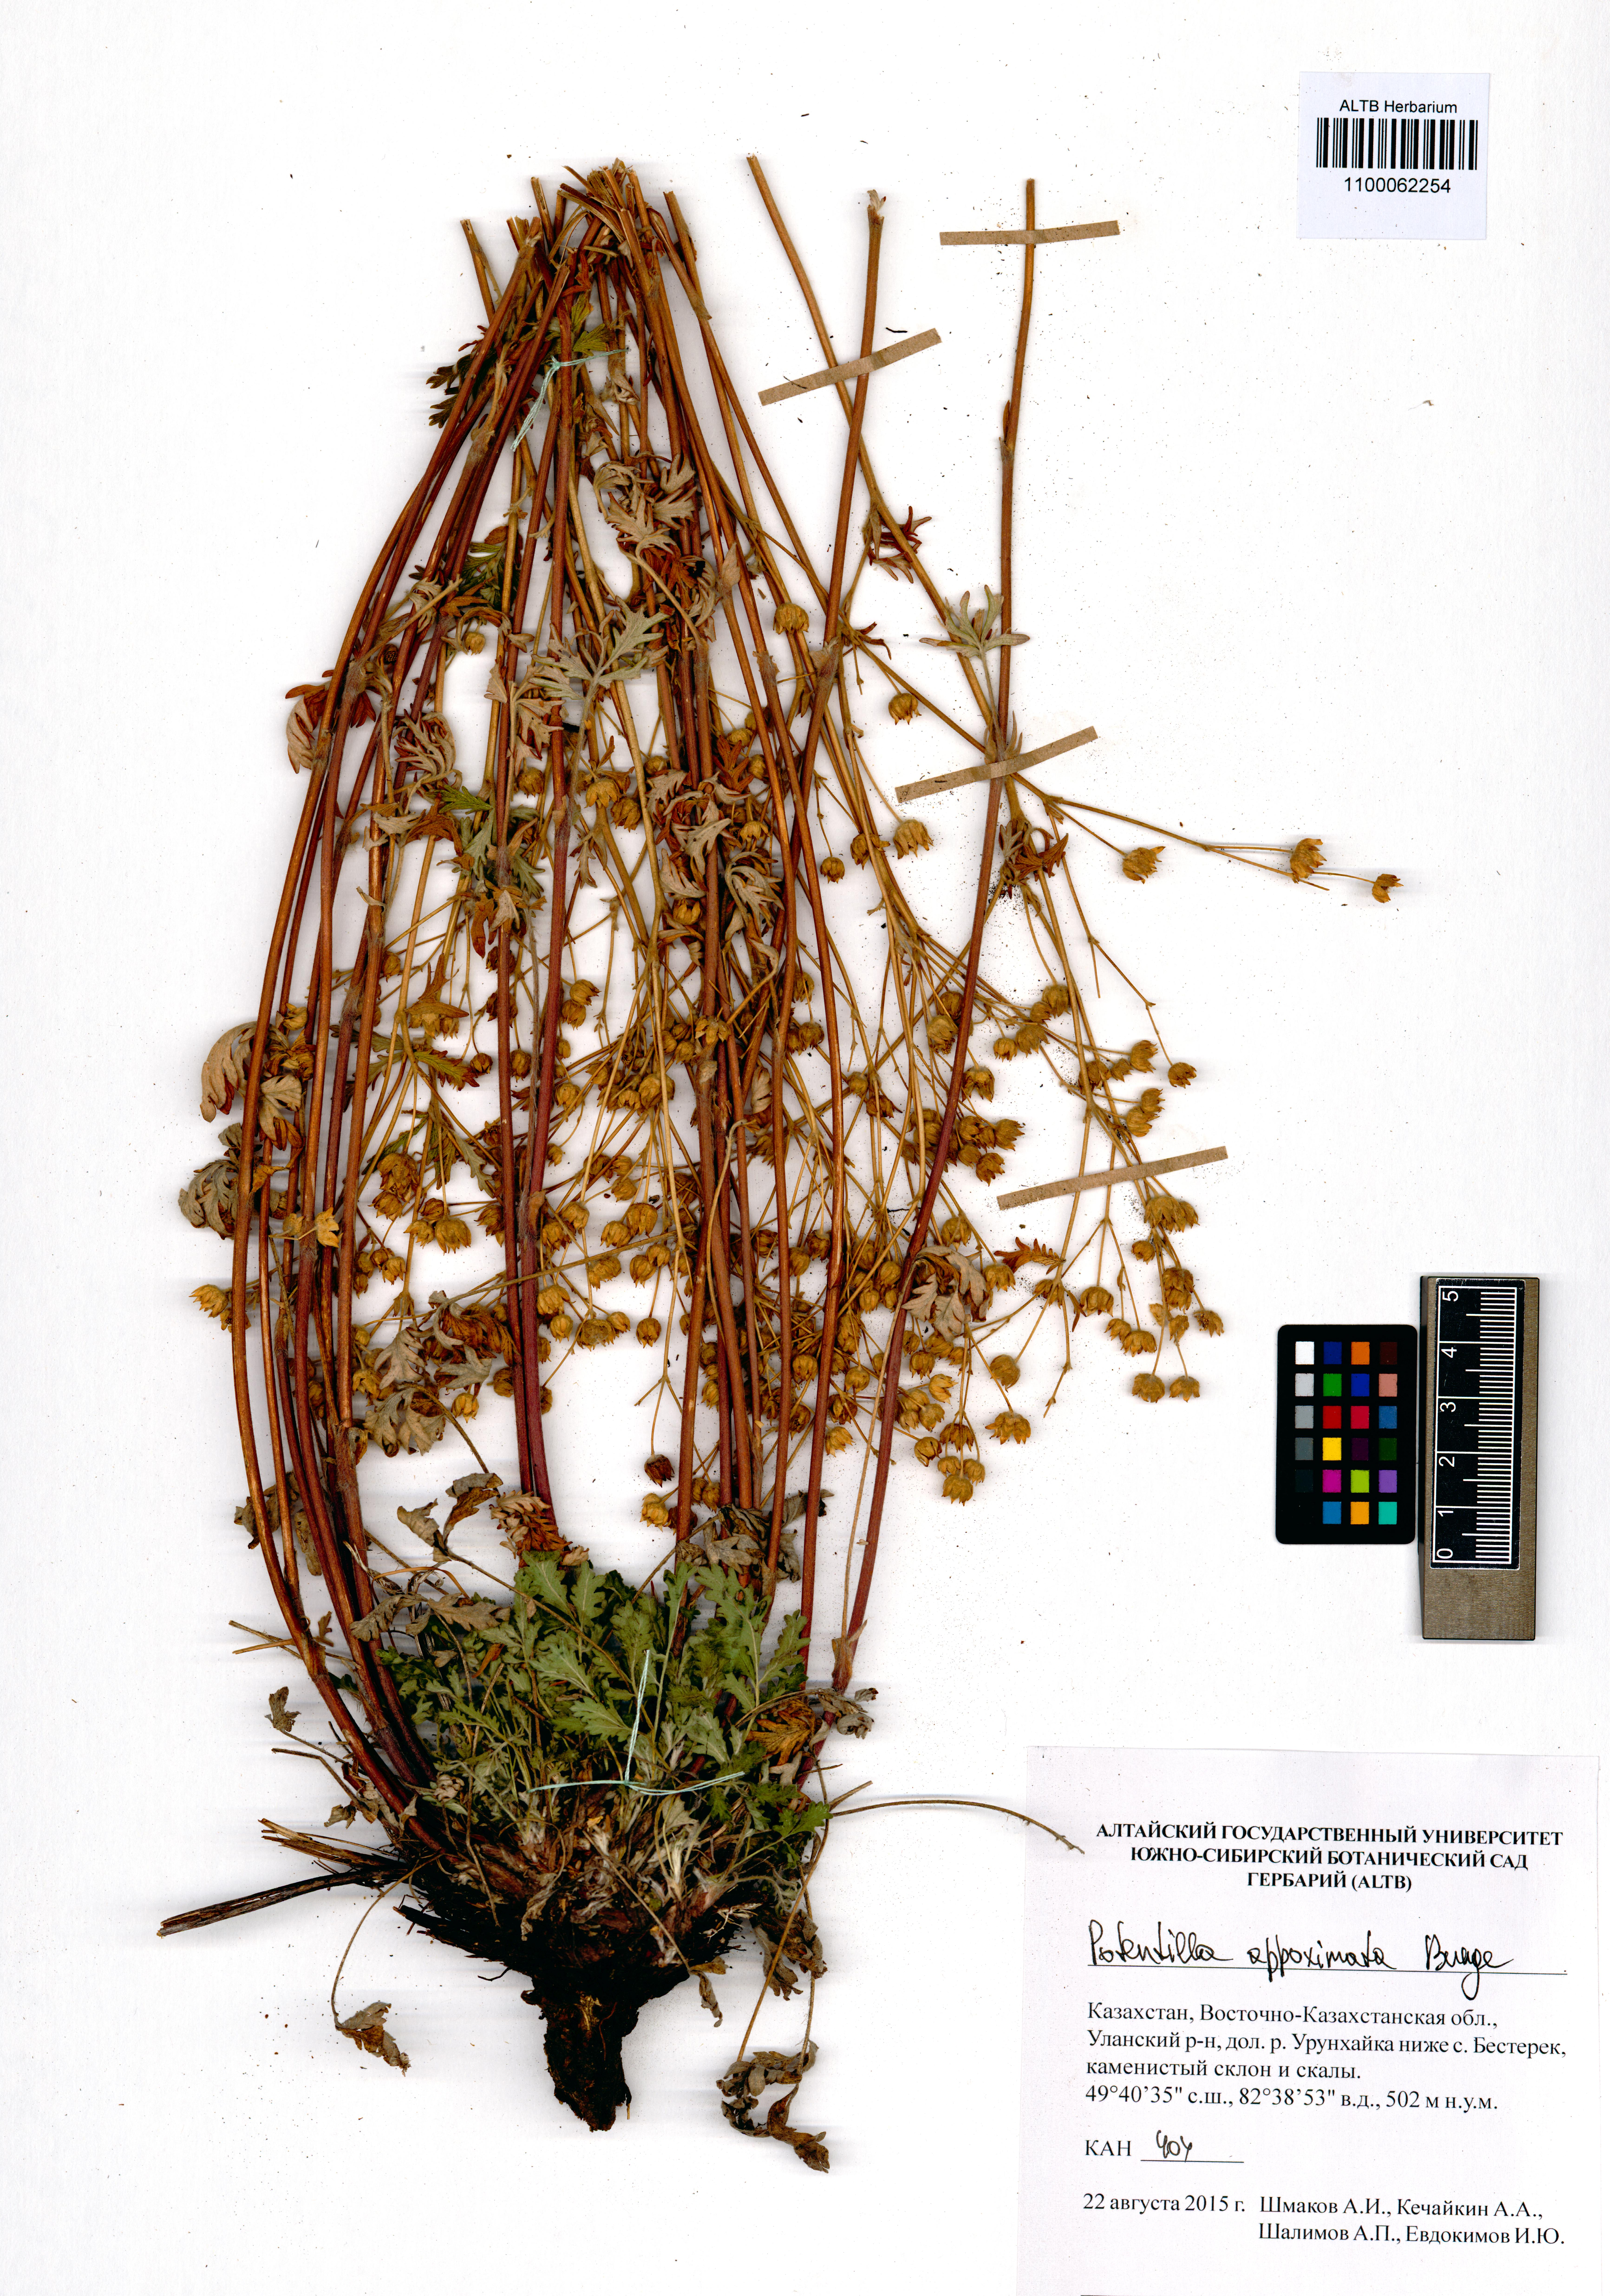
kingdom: Plantae
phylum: Tracheophyta
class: Magnoliopsida
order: Rosales
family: Rosaceae
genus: Potentilla
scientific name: Potentilla conferta
